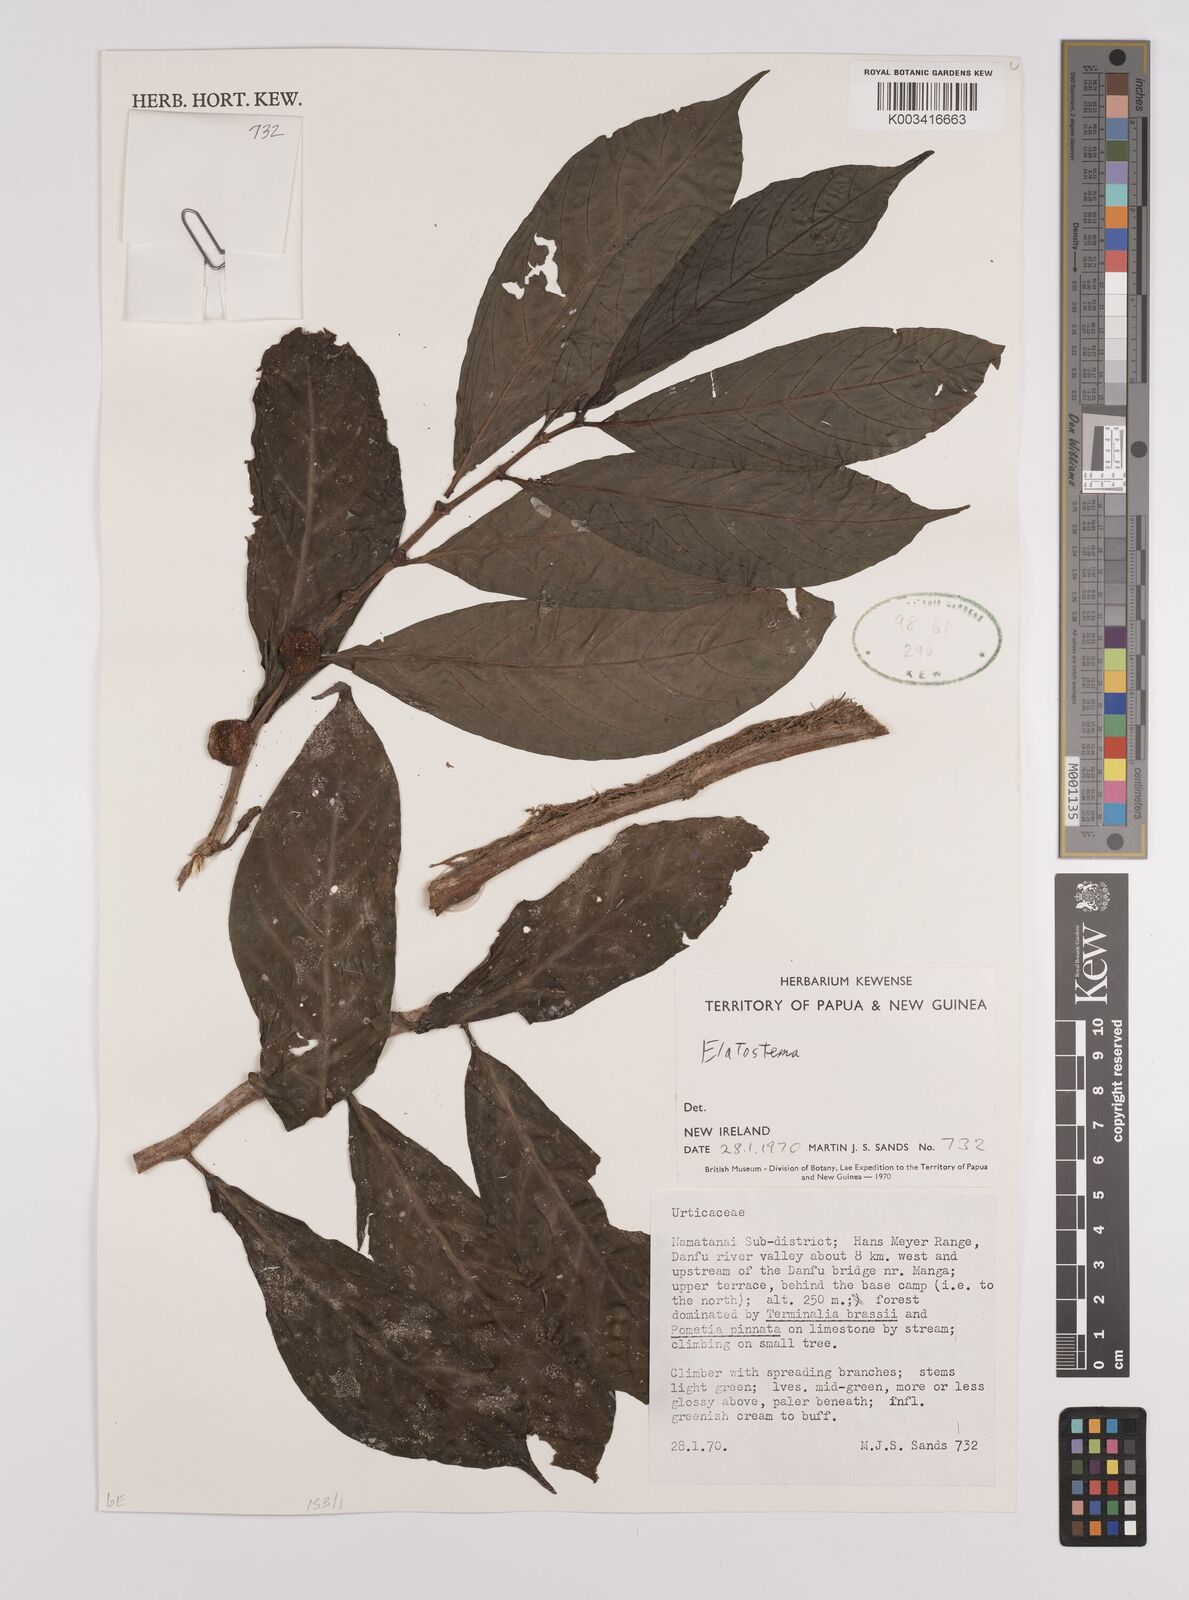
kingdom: Plantae
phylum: Tracheophyta
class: Magnoliopsida
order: Rosales
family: Urticaceae
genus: Elatostema
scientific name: Elatostema
